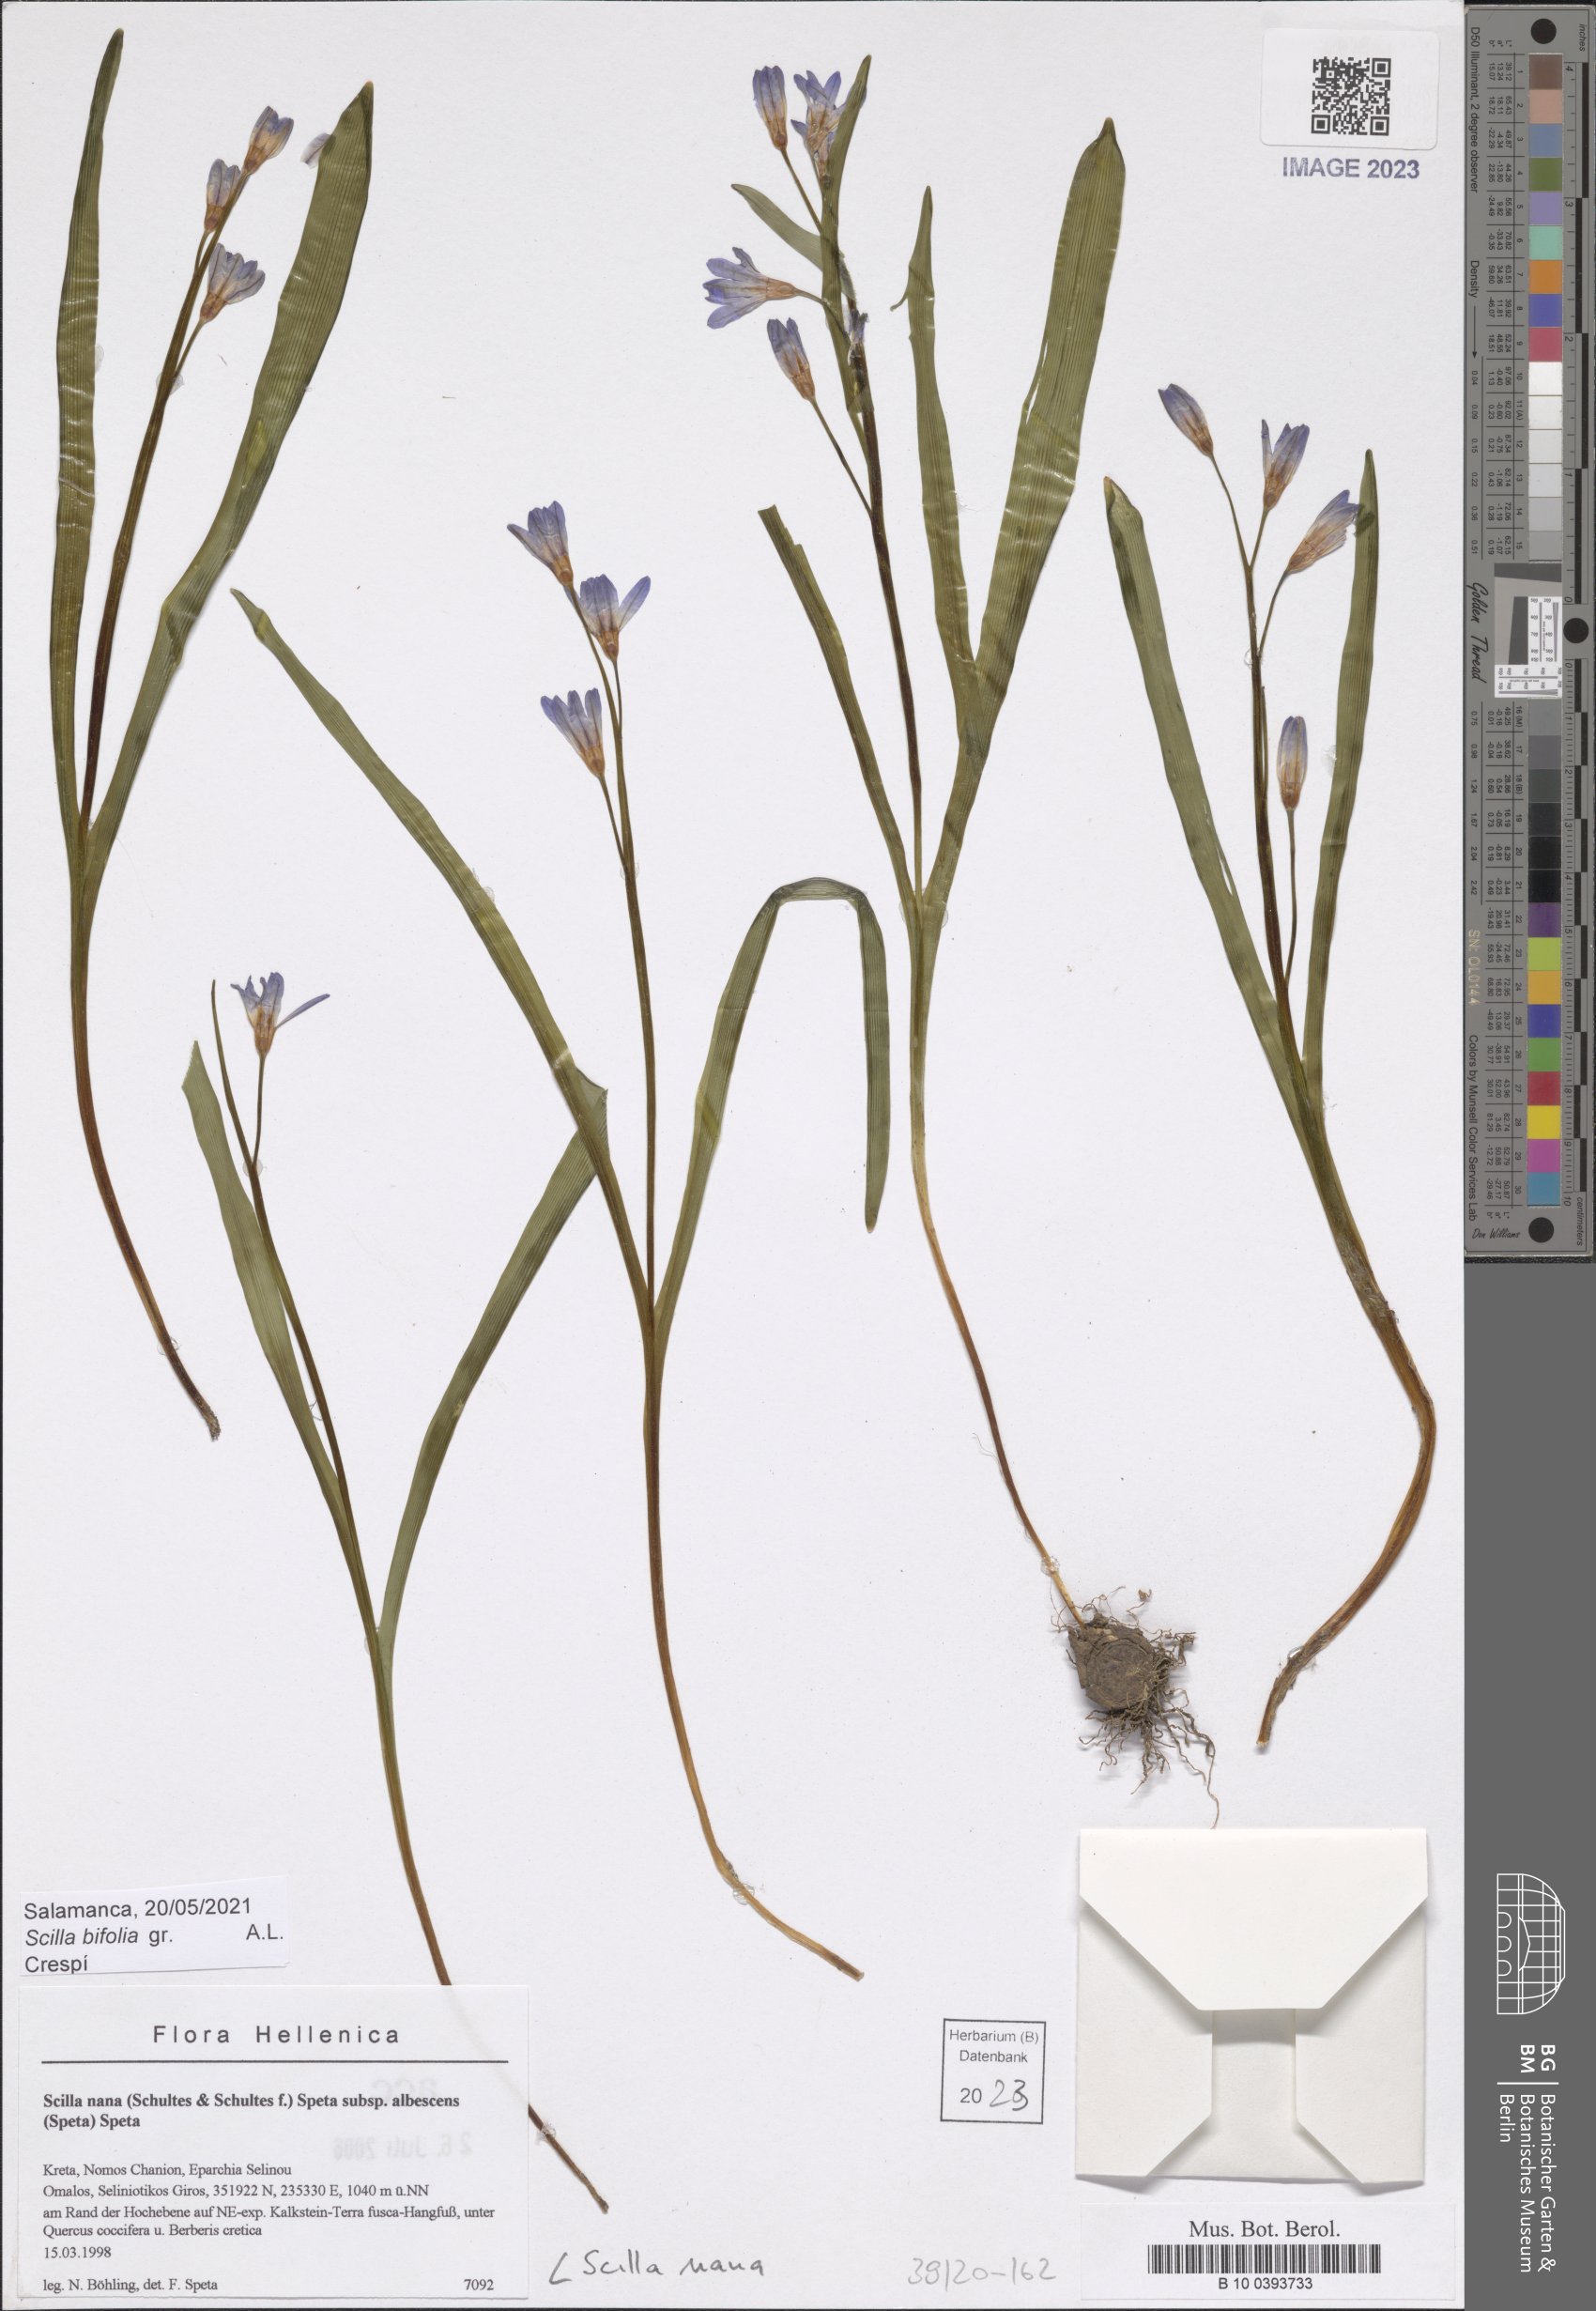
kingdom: Plantae
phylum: Tracheophyta
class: Liliopsida
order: Asparagales
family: Asparagaceae
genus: Scilla
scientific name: Scilla nana
